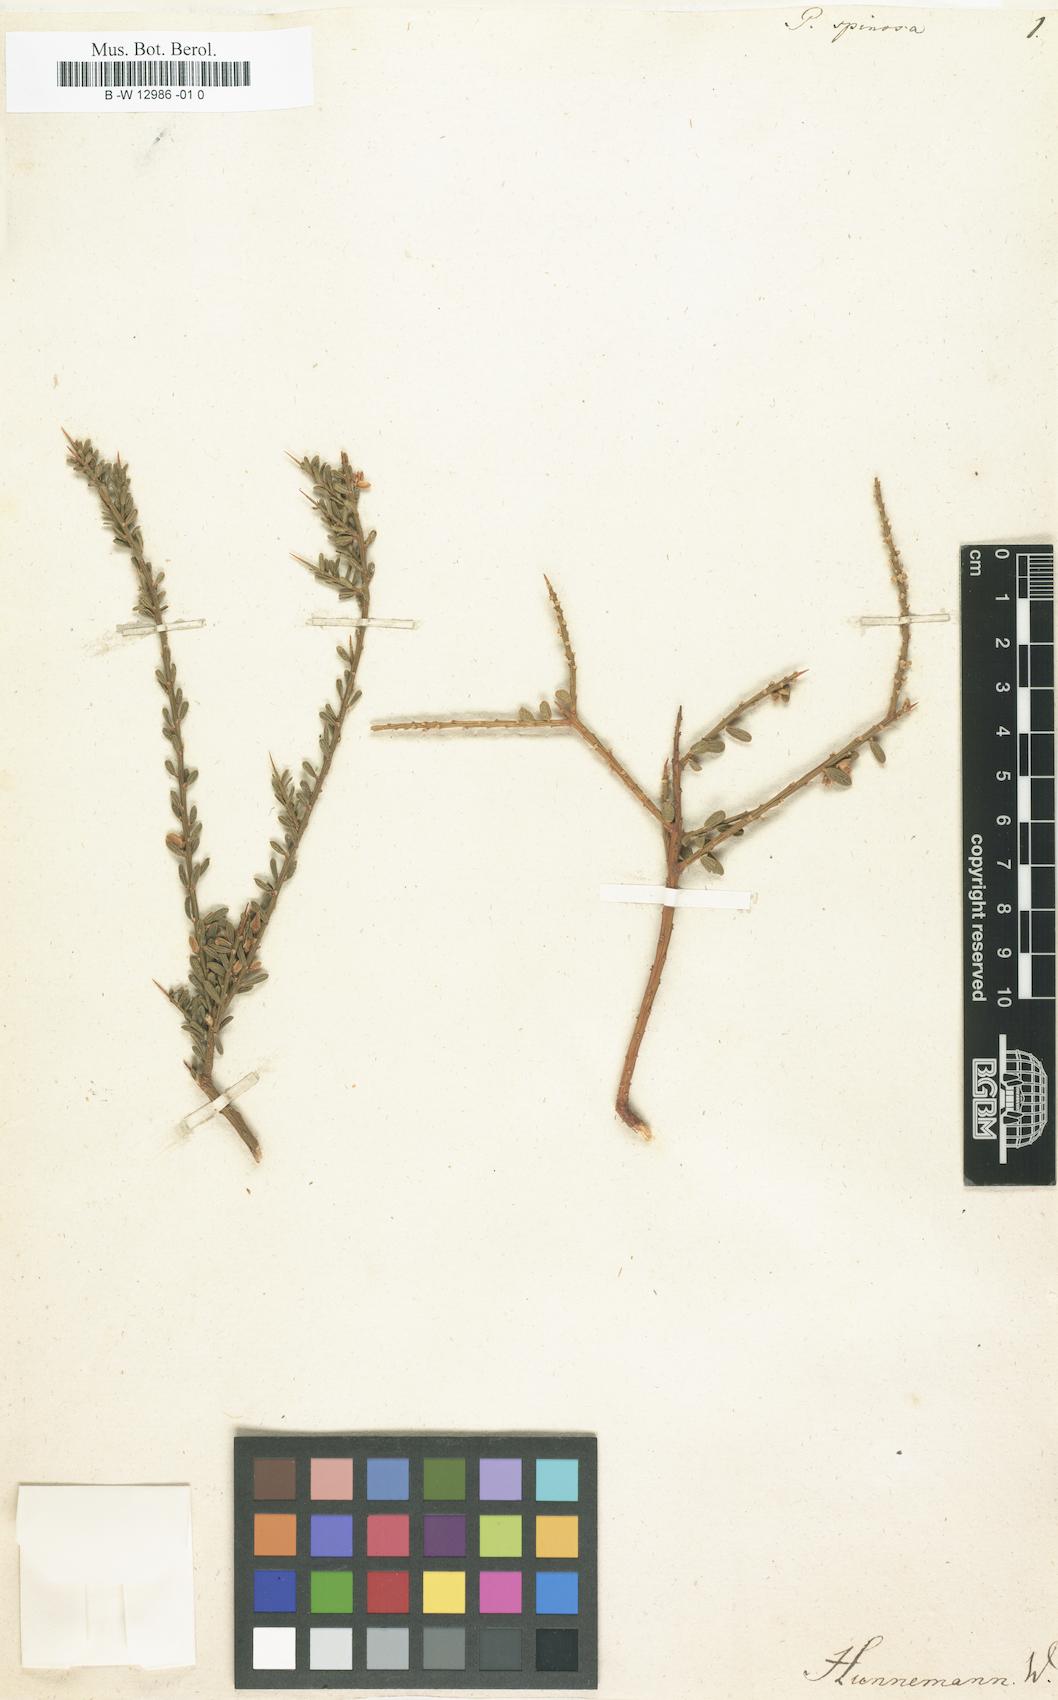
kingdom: Plantae
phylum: Tracheophyta
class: Magnoliopsida
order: Fabales
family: Polygalaceae
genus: Muraltia
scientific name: Muraltia spinosa
